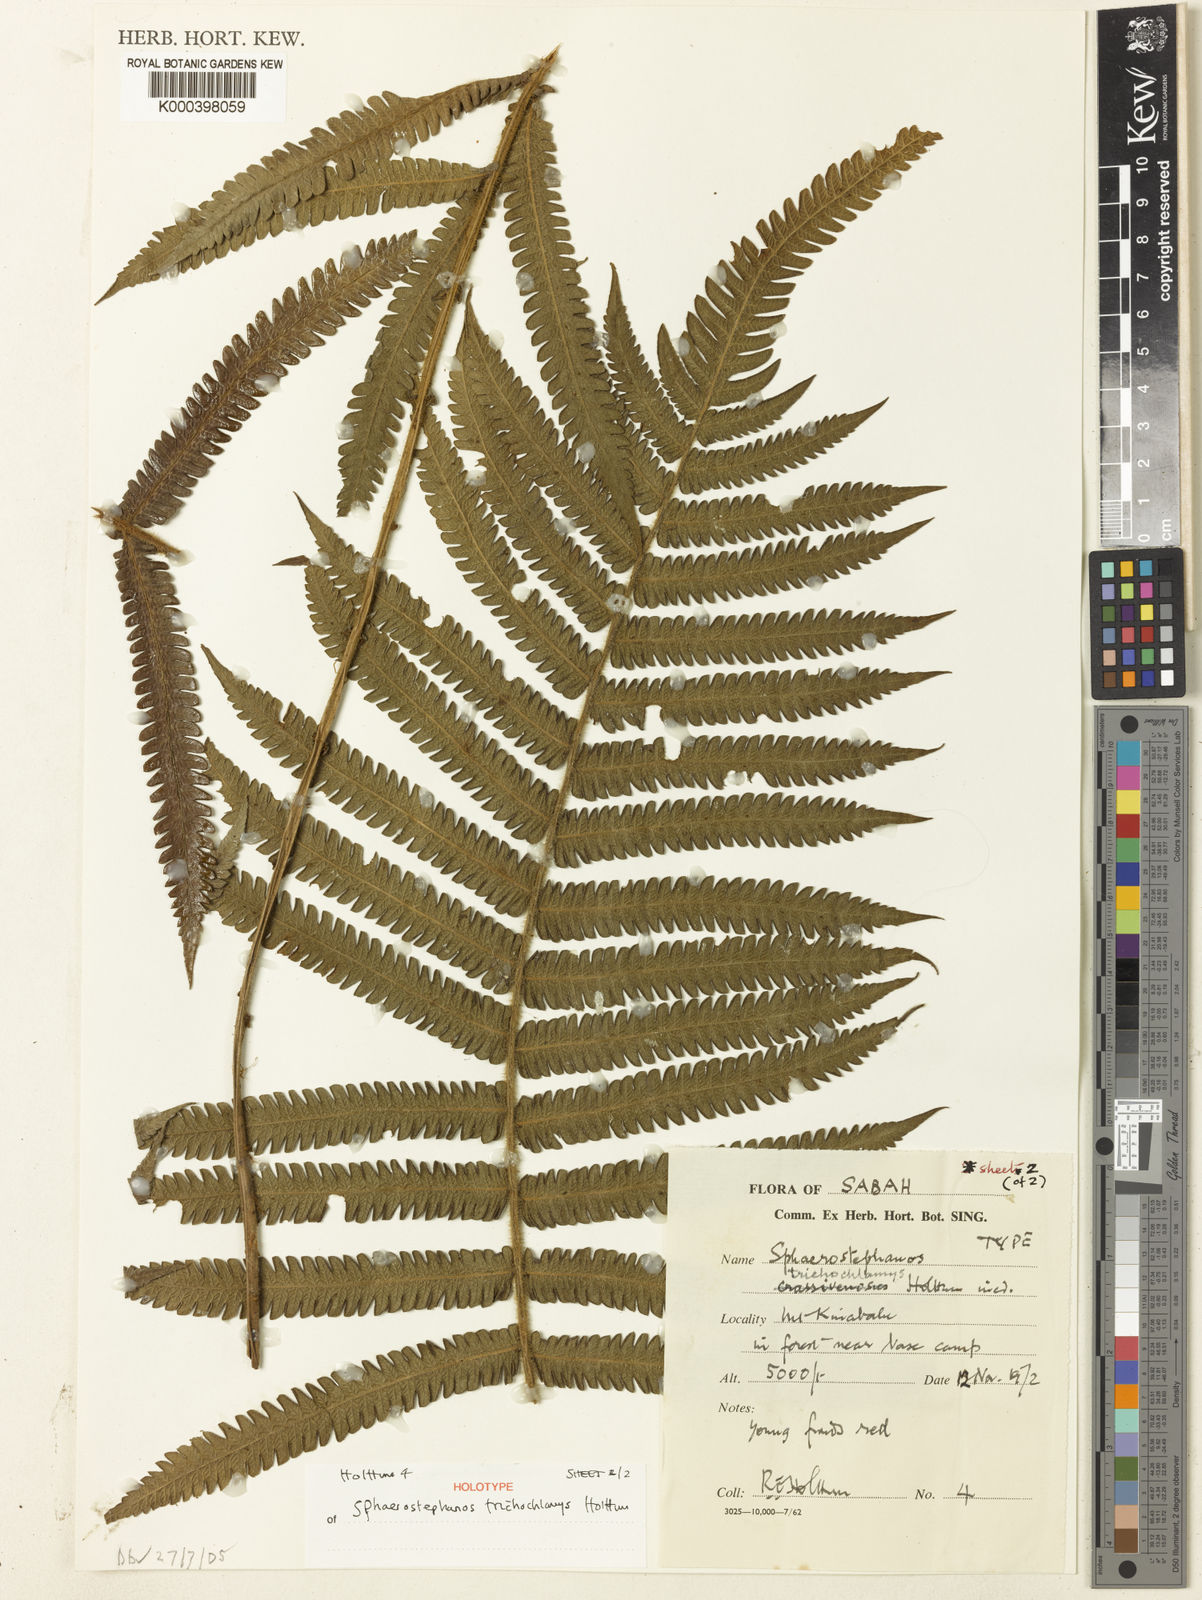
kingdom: Plantae
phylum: Tracheophyta
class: Polypodiopsida
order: Polypodiales
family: Thelypteridaceae
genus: Sphaerostephanos
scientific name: Sphaerostephanos trichochlamys
